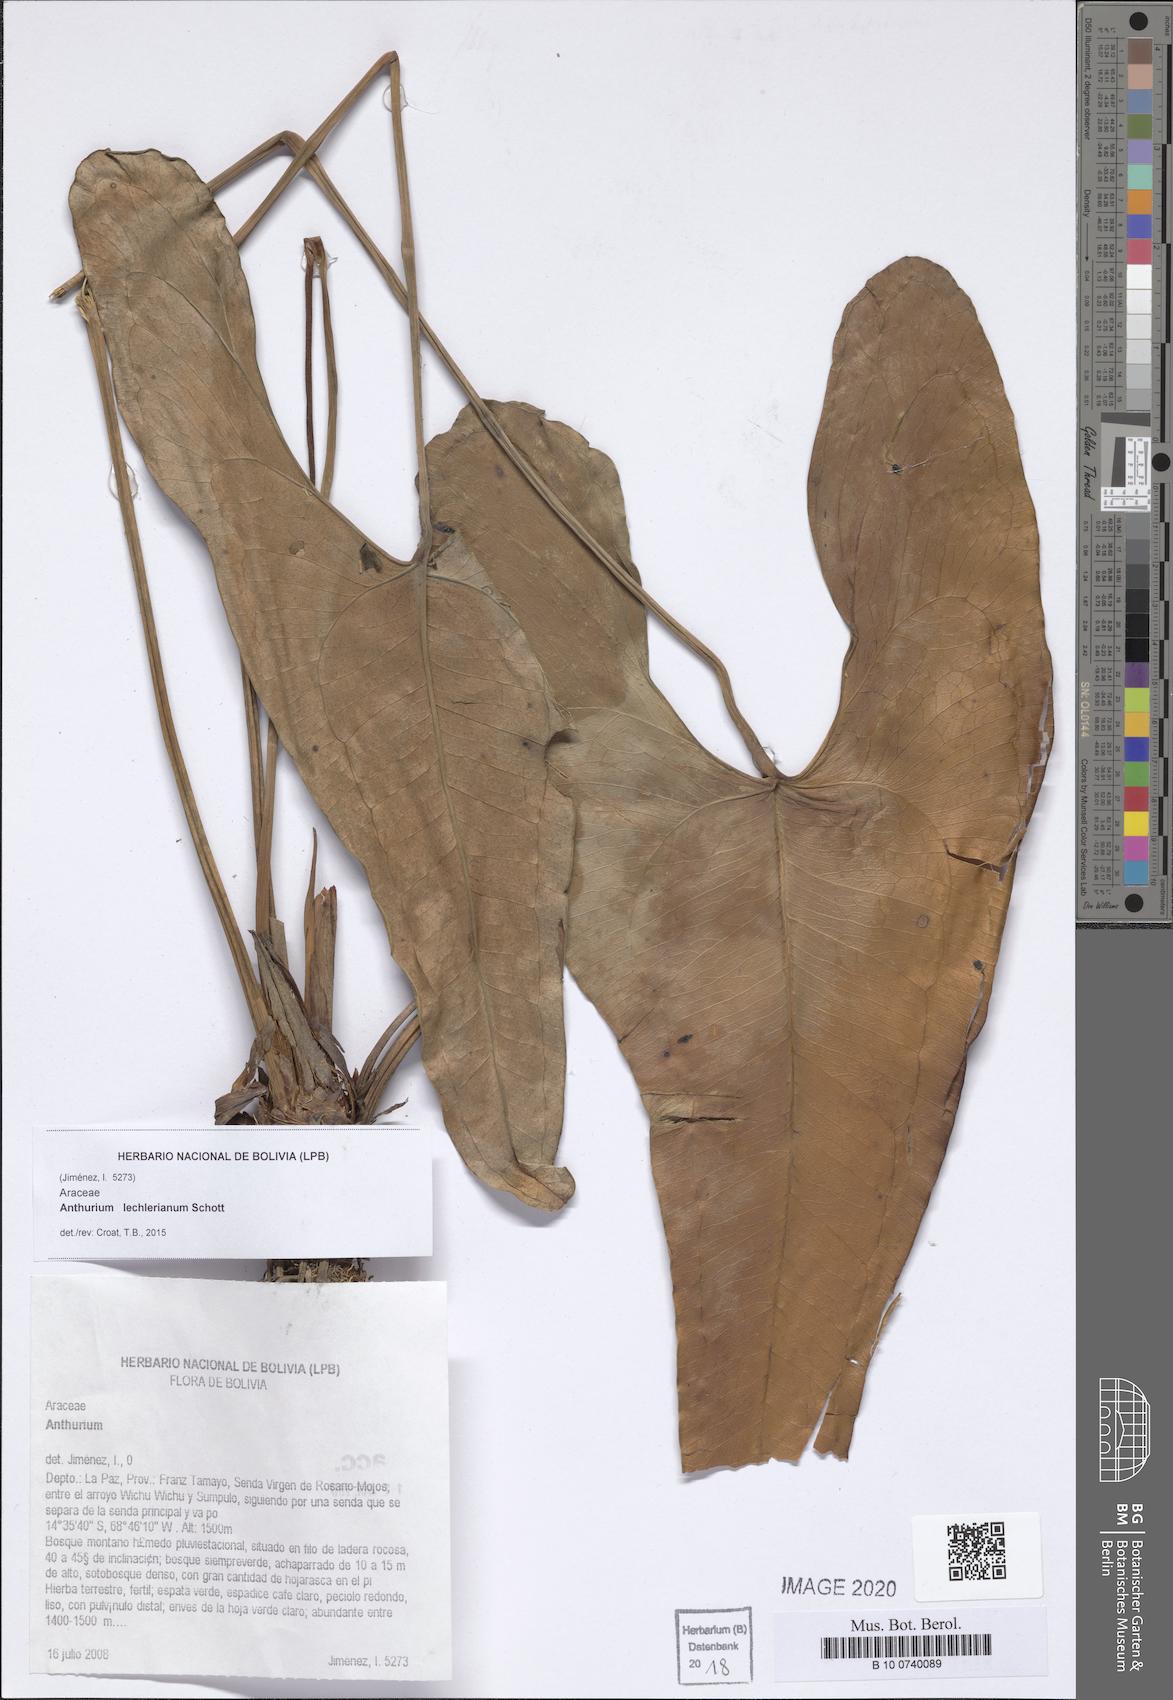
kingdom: Plantae
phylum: Tracheophyta
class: Liliopsida
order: Alismatales
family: Araceae
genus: Anthurium
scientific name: Anthurium lechlerianum
